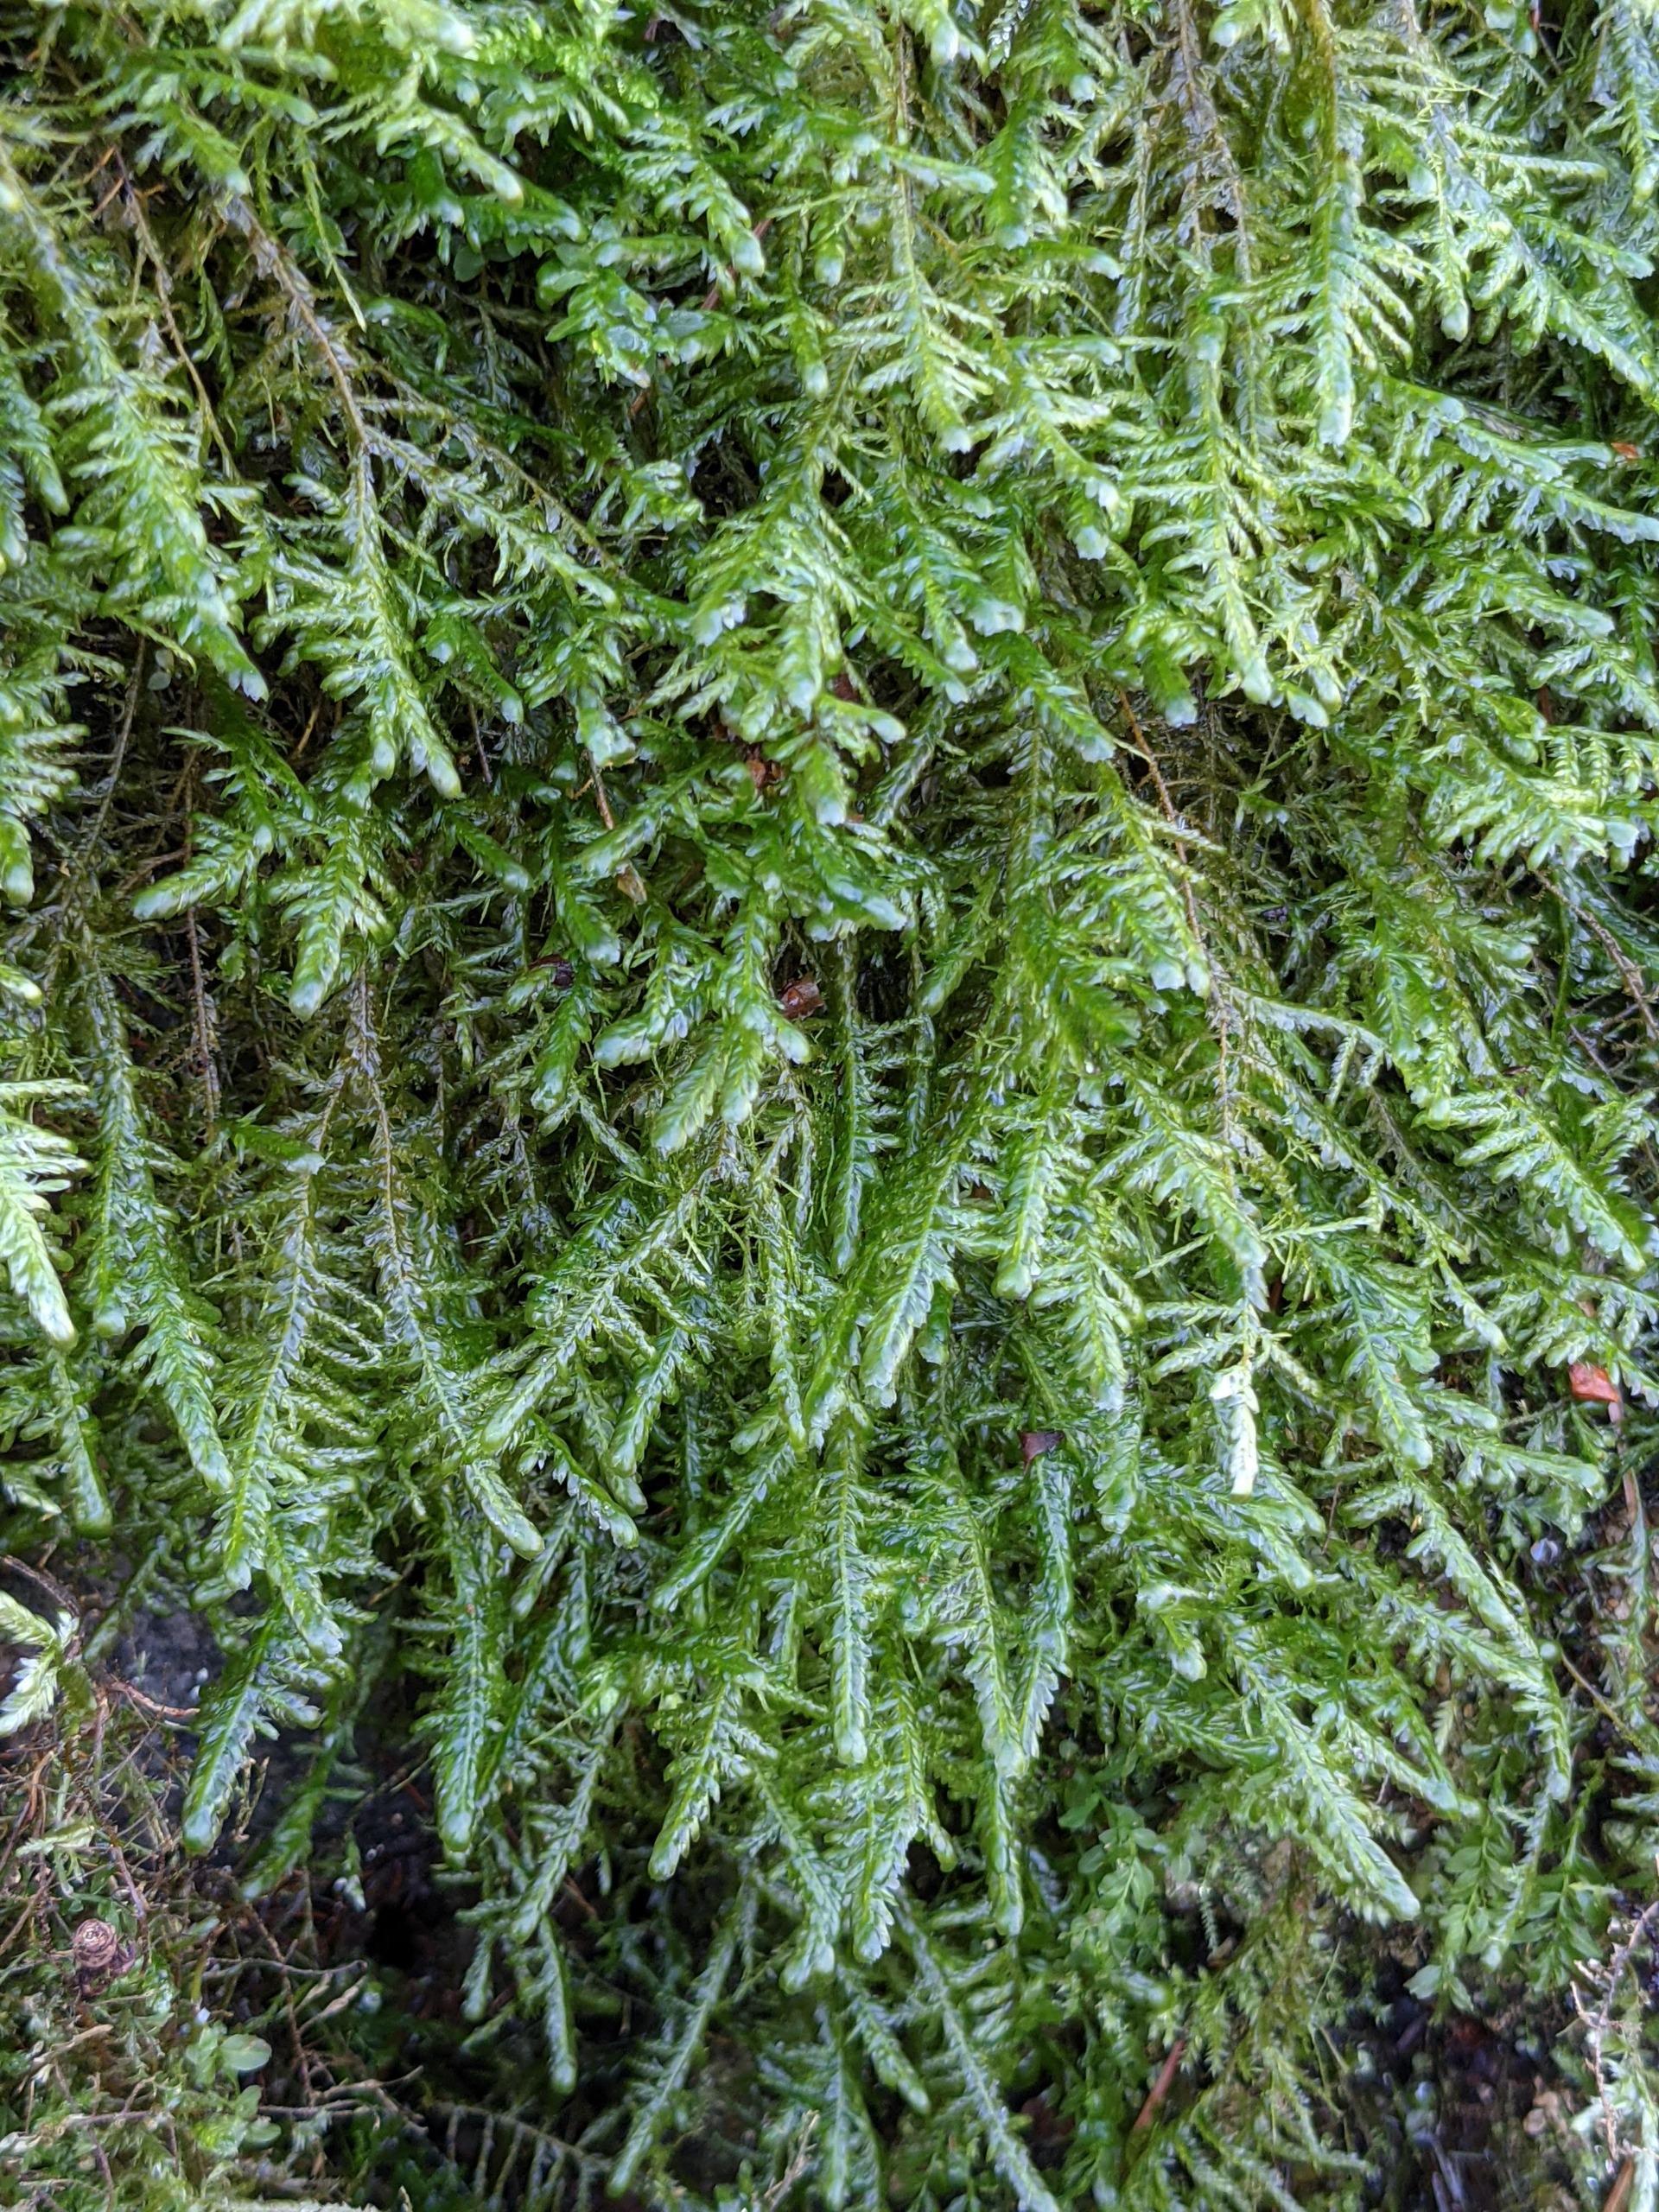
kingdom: Plantae
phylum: Bryophyta
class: Bryopsida
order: Hypnales
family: Neckeraceae
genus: Alleniella
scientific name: Alleniella complanata
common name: Almindelig fladmos
